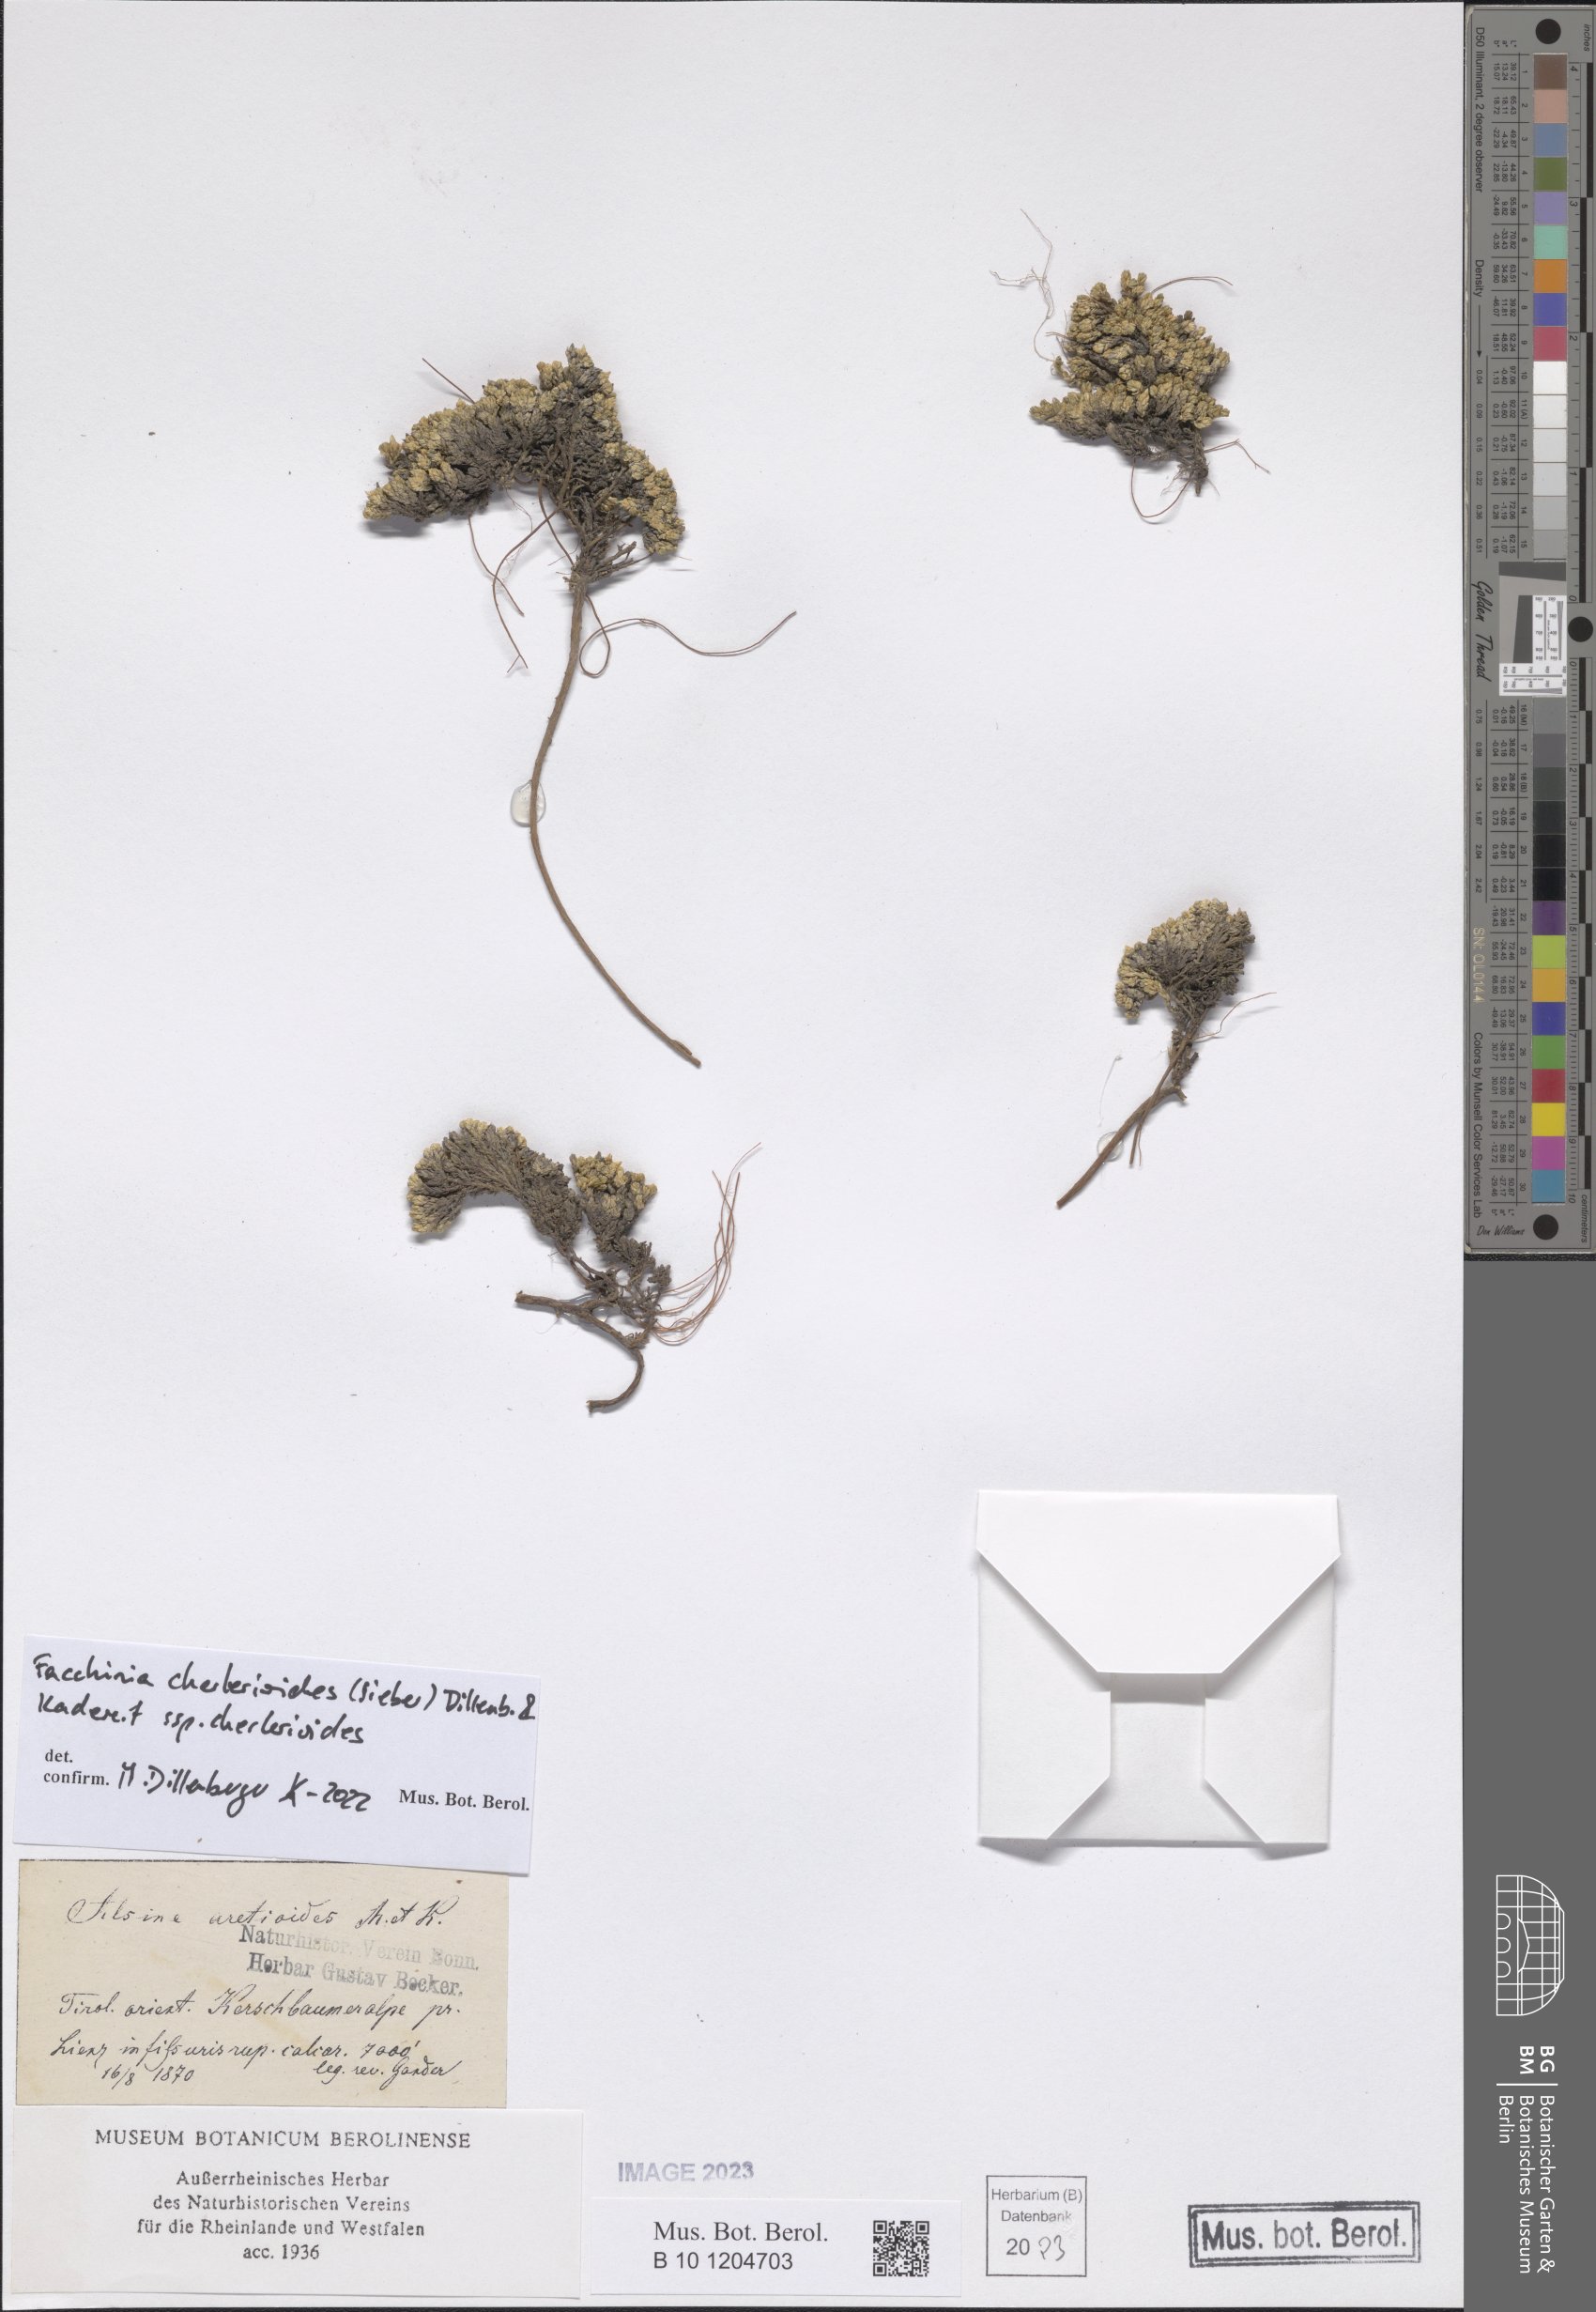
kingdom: Plantae
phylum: Tracheophyta
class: Magnoliopsida
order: Caryophyllales
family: Caryophyllaceae
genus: Facchinia
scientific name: Facchinia cherlerioides
